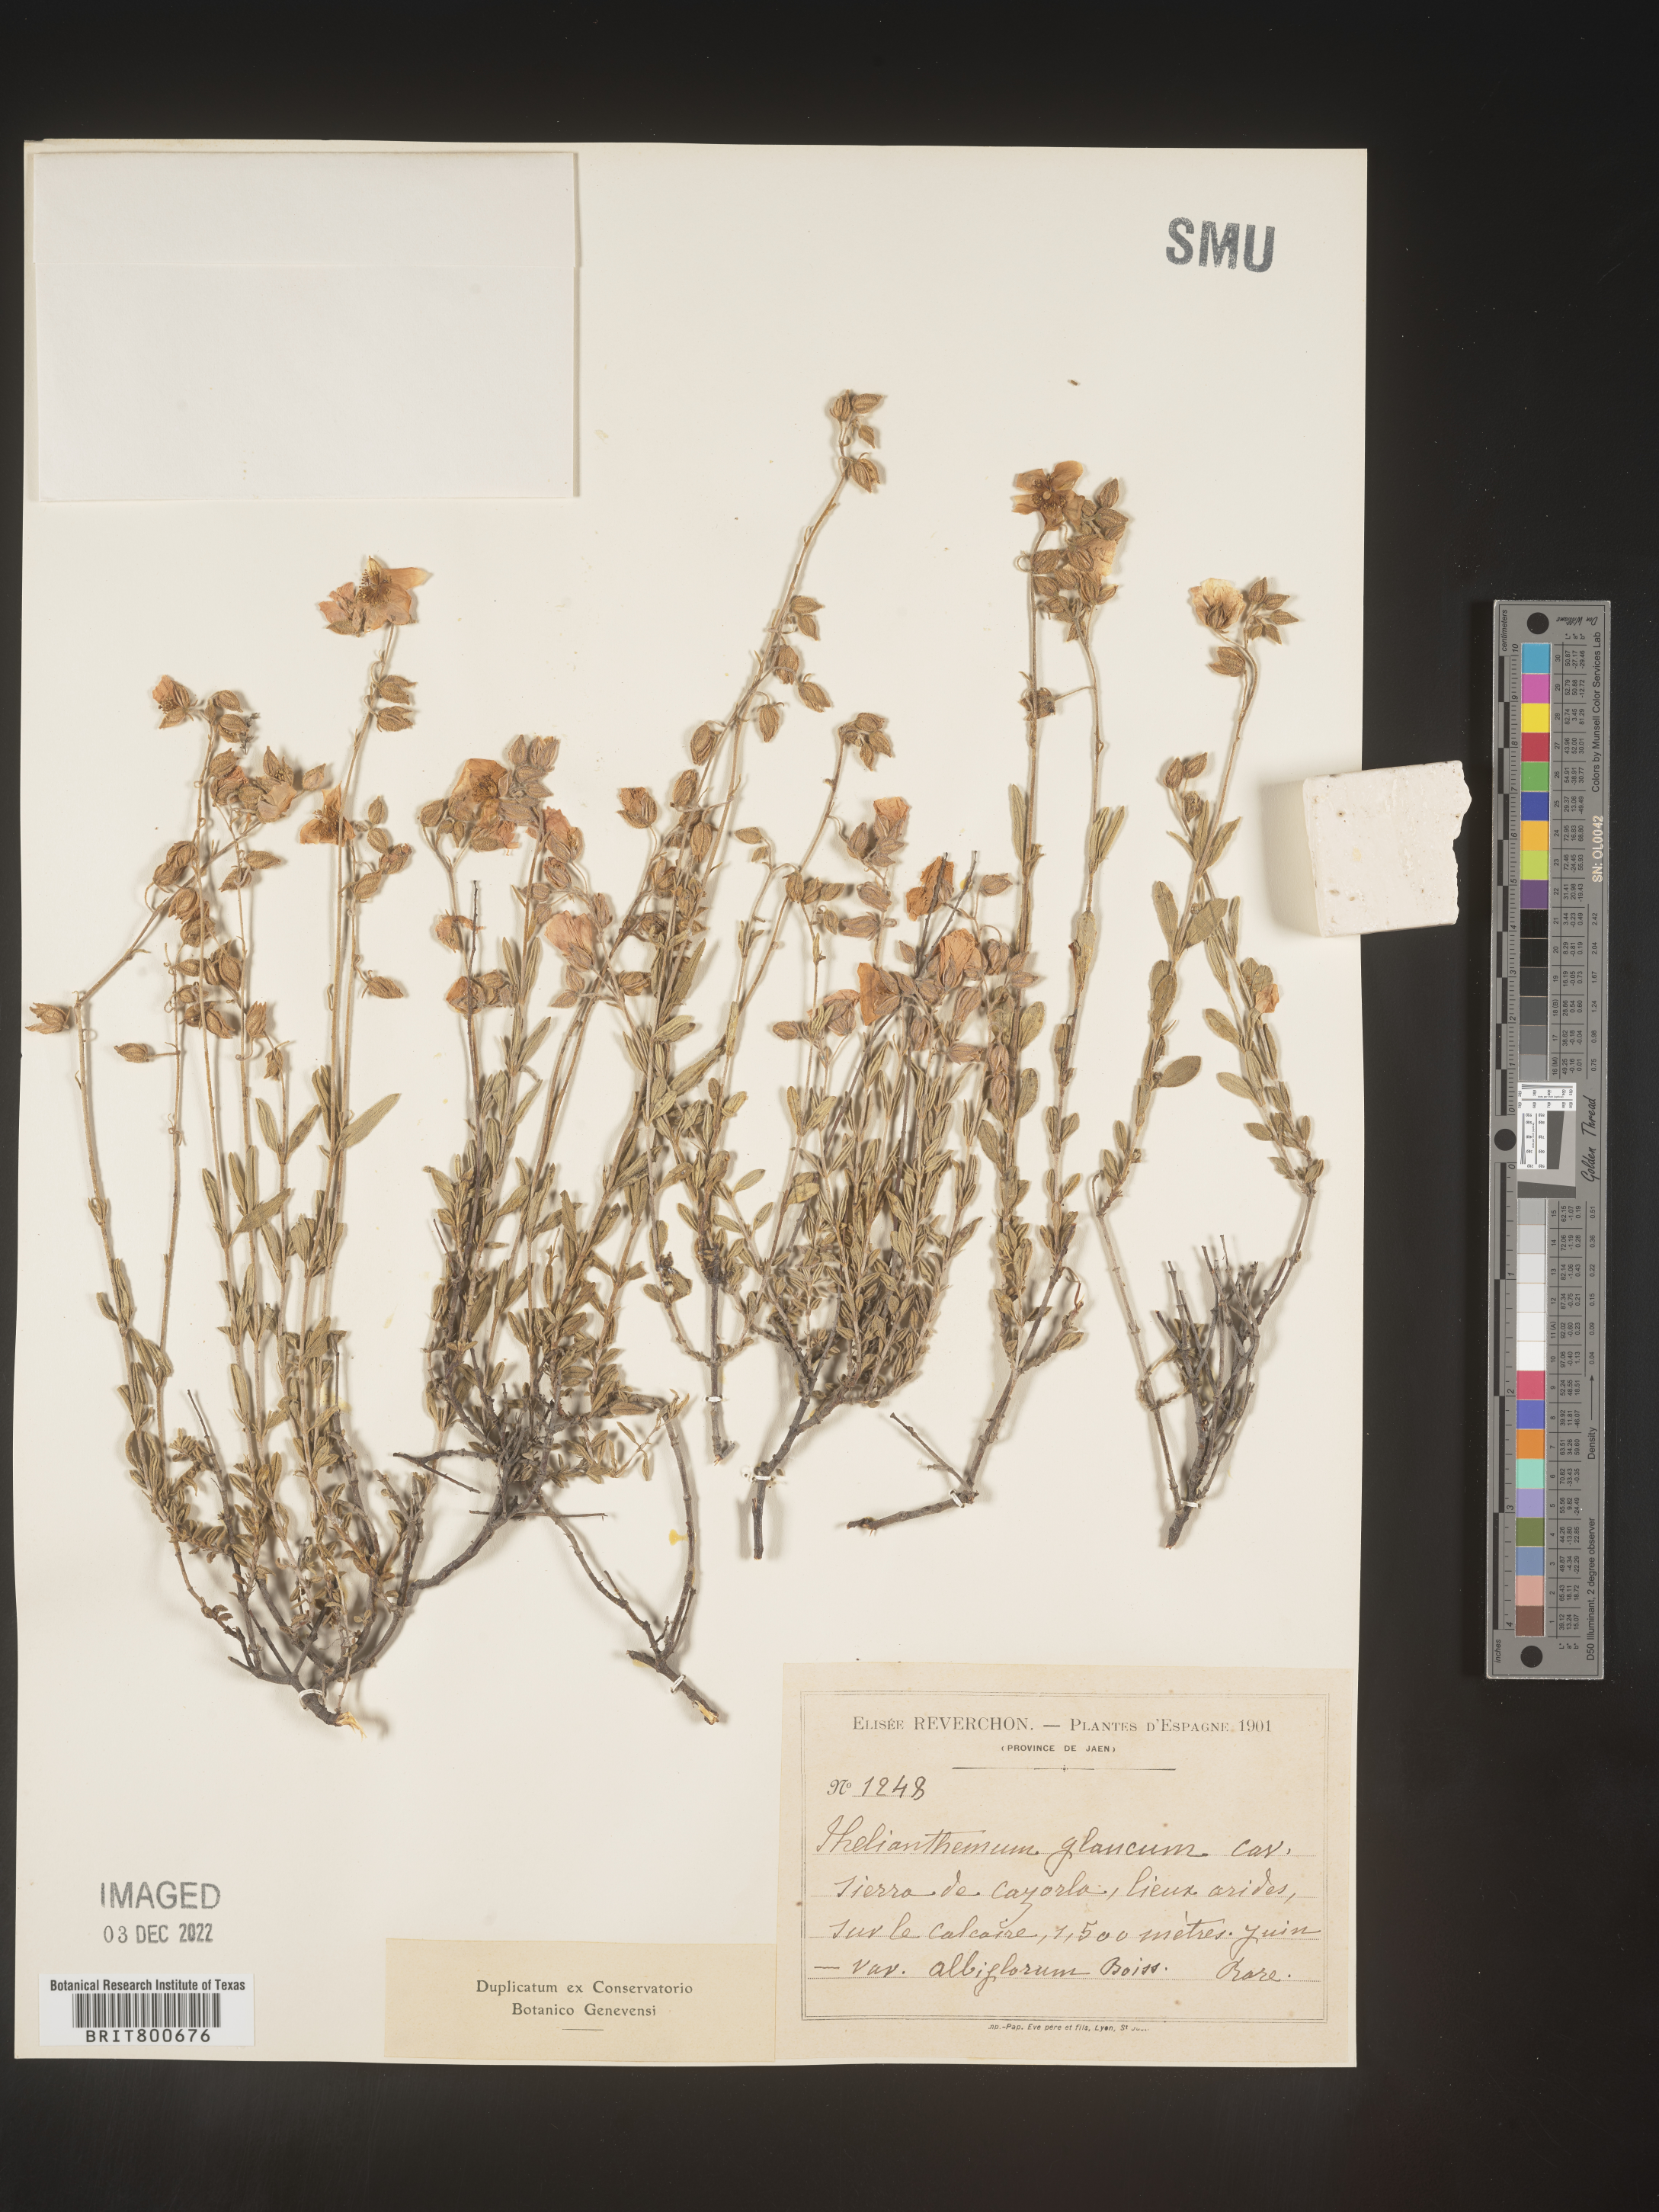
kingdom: Plantae
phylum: Tracheophyta
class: Magnoliopsida
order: Malvales
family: Cistaceae
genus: Helianthemum
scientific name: Helianthemum
